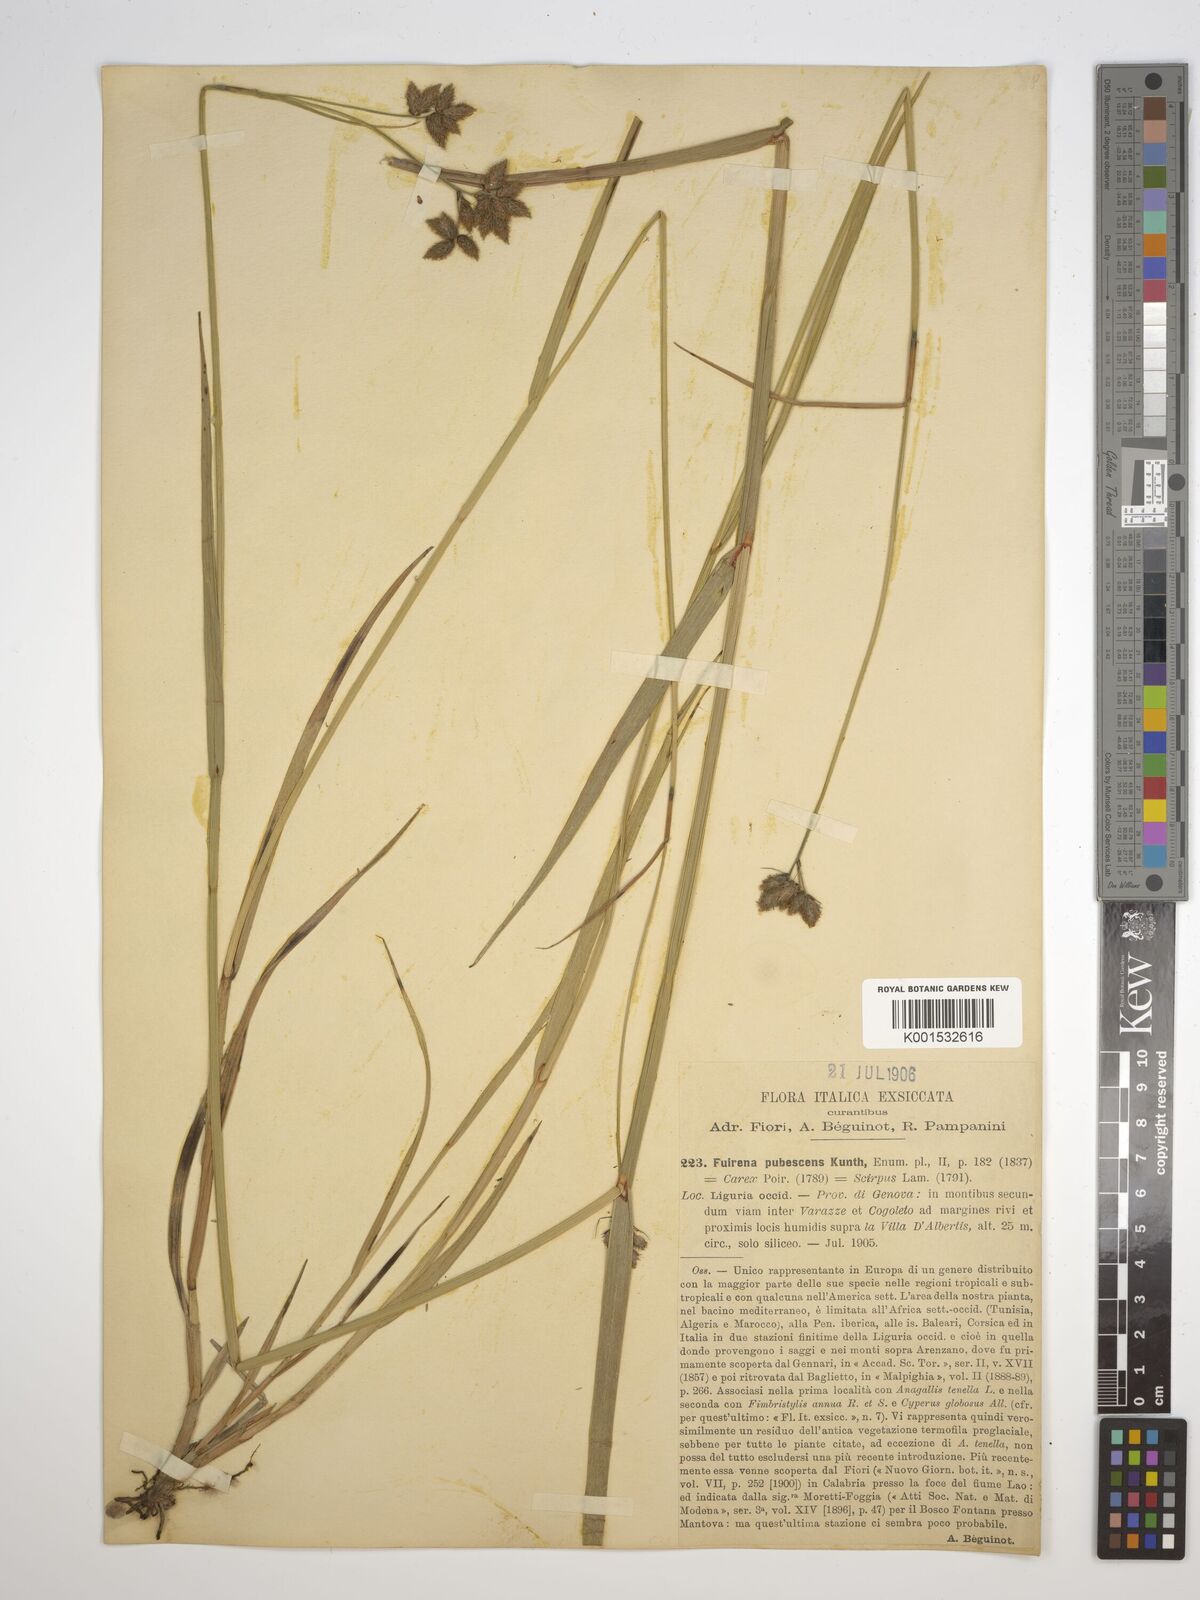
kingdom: Plantae
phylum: Tracheophyta
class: Liliopsida
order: Poales
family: Cyperaceae
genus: Fuirena
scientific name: Fuirena pubescens
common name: Hairy sedge
